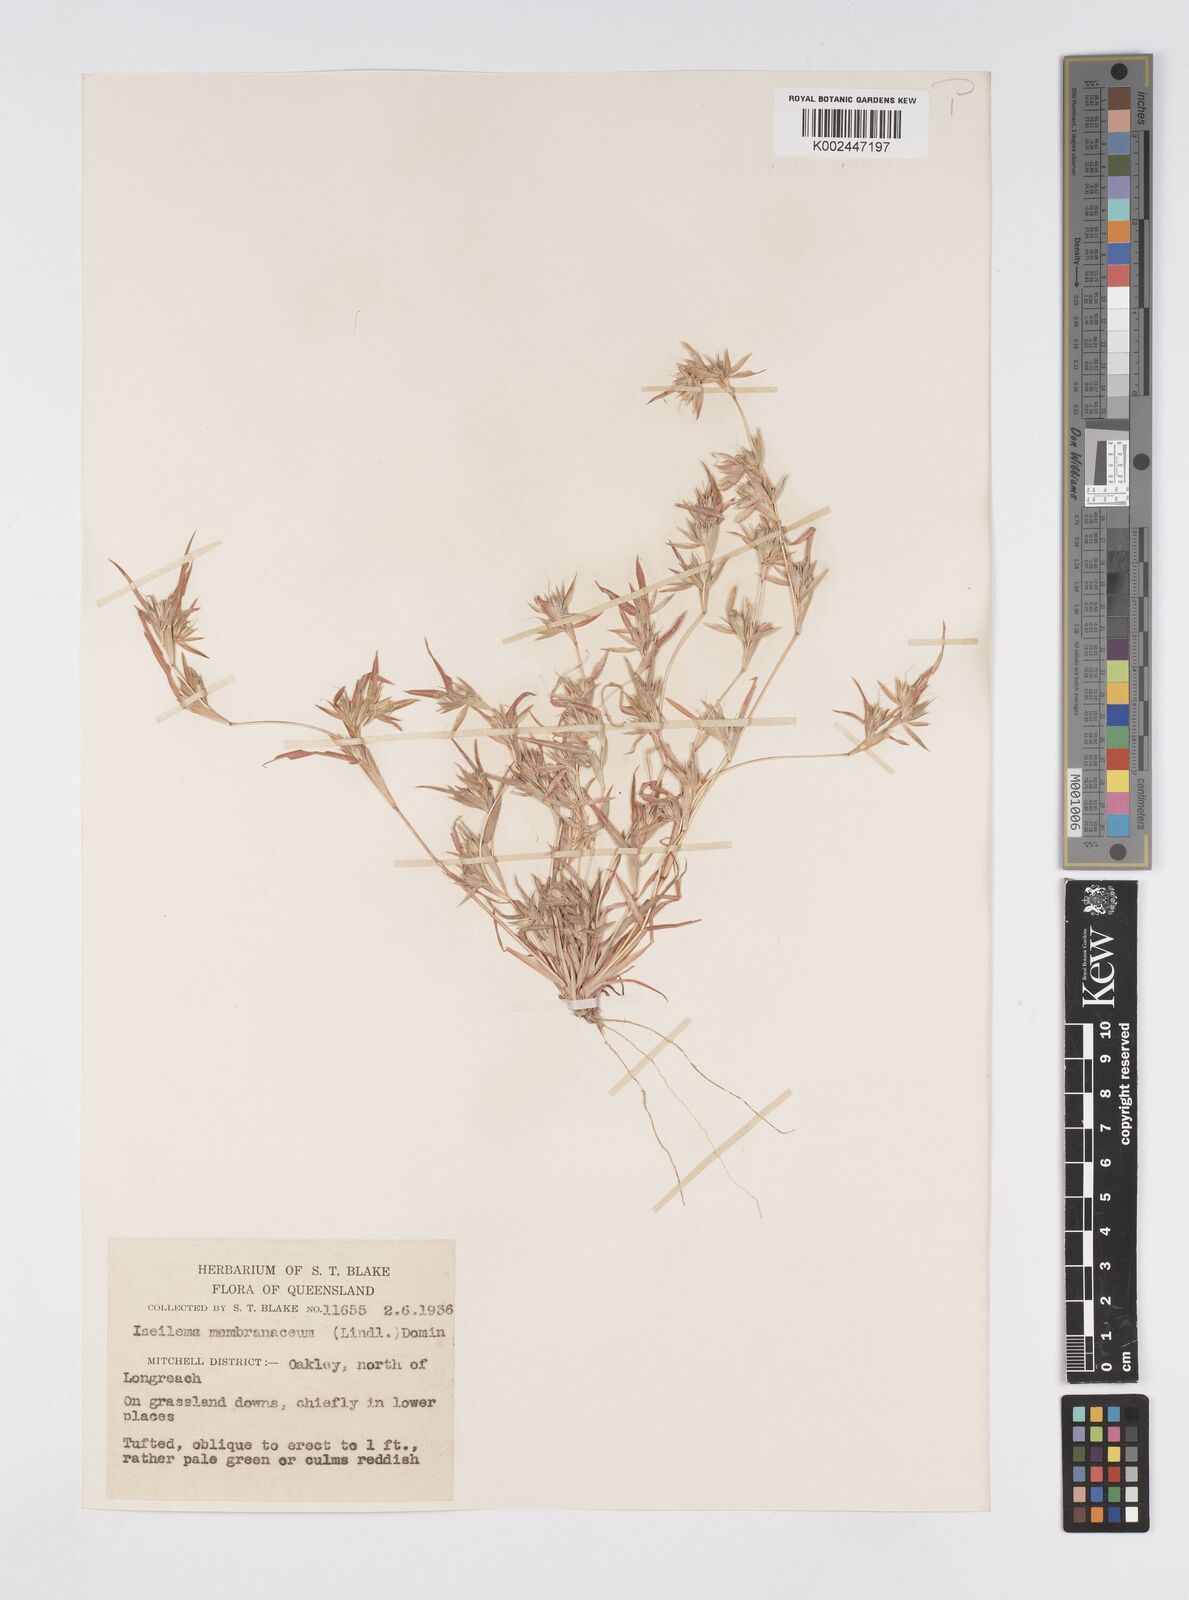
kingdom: Plantae
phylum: Tracheophyta
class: Liliopsida
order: Poales
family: Poaceae
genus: Iseilema
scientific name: Iseilema membranaceum
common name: Small flinders grass
